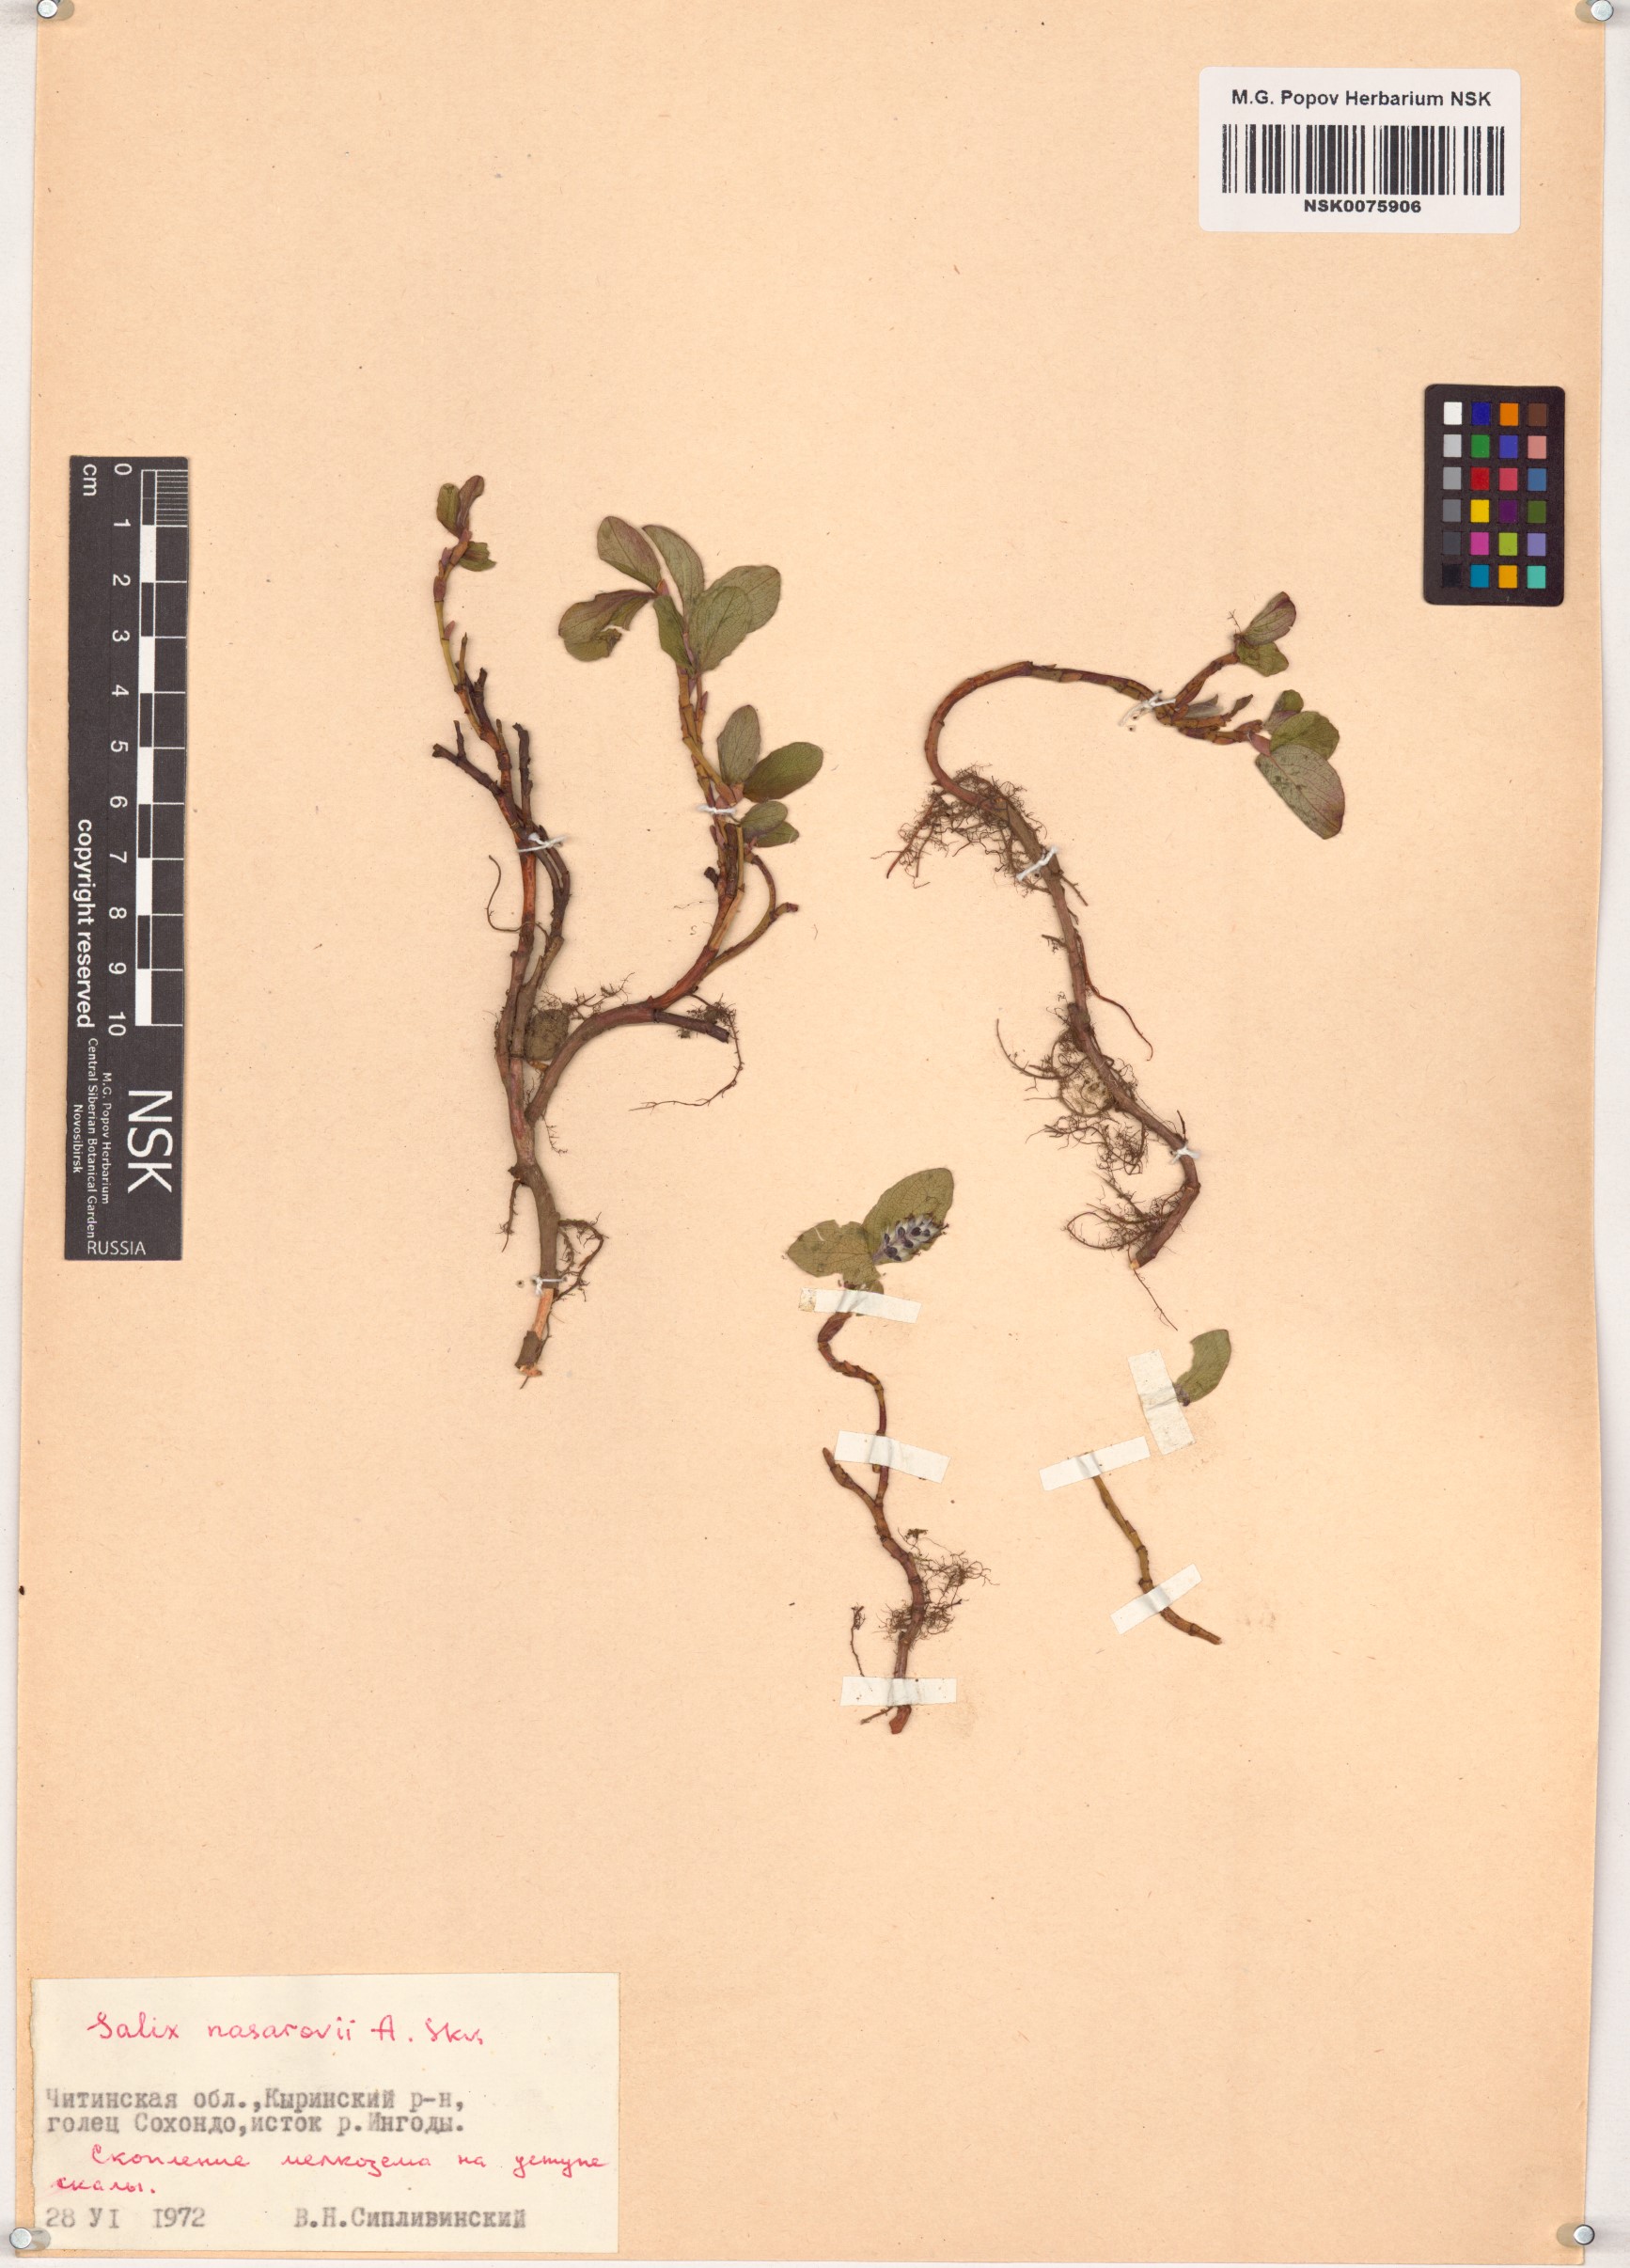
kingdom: Plantae
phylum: Tracheophyta
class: Magnoliopsida
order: Malpighiales
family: Salicaceae
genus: Salix
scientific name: Salix nasarovii
